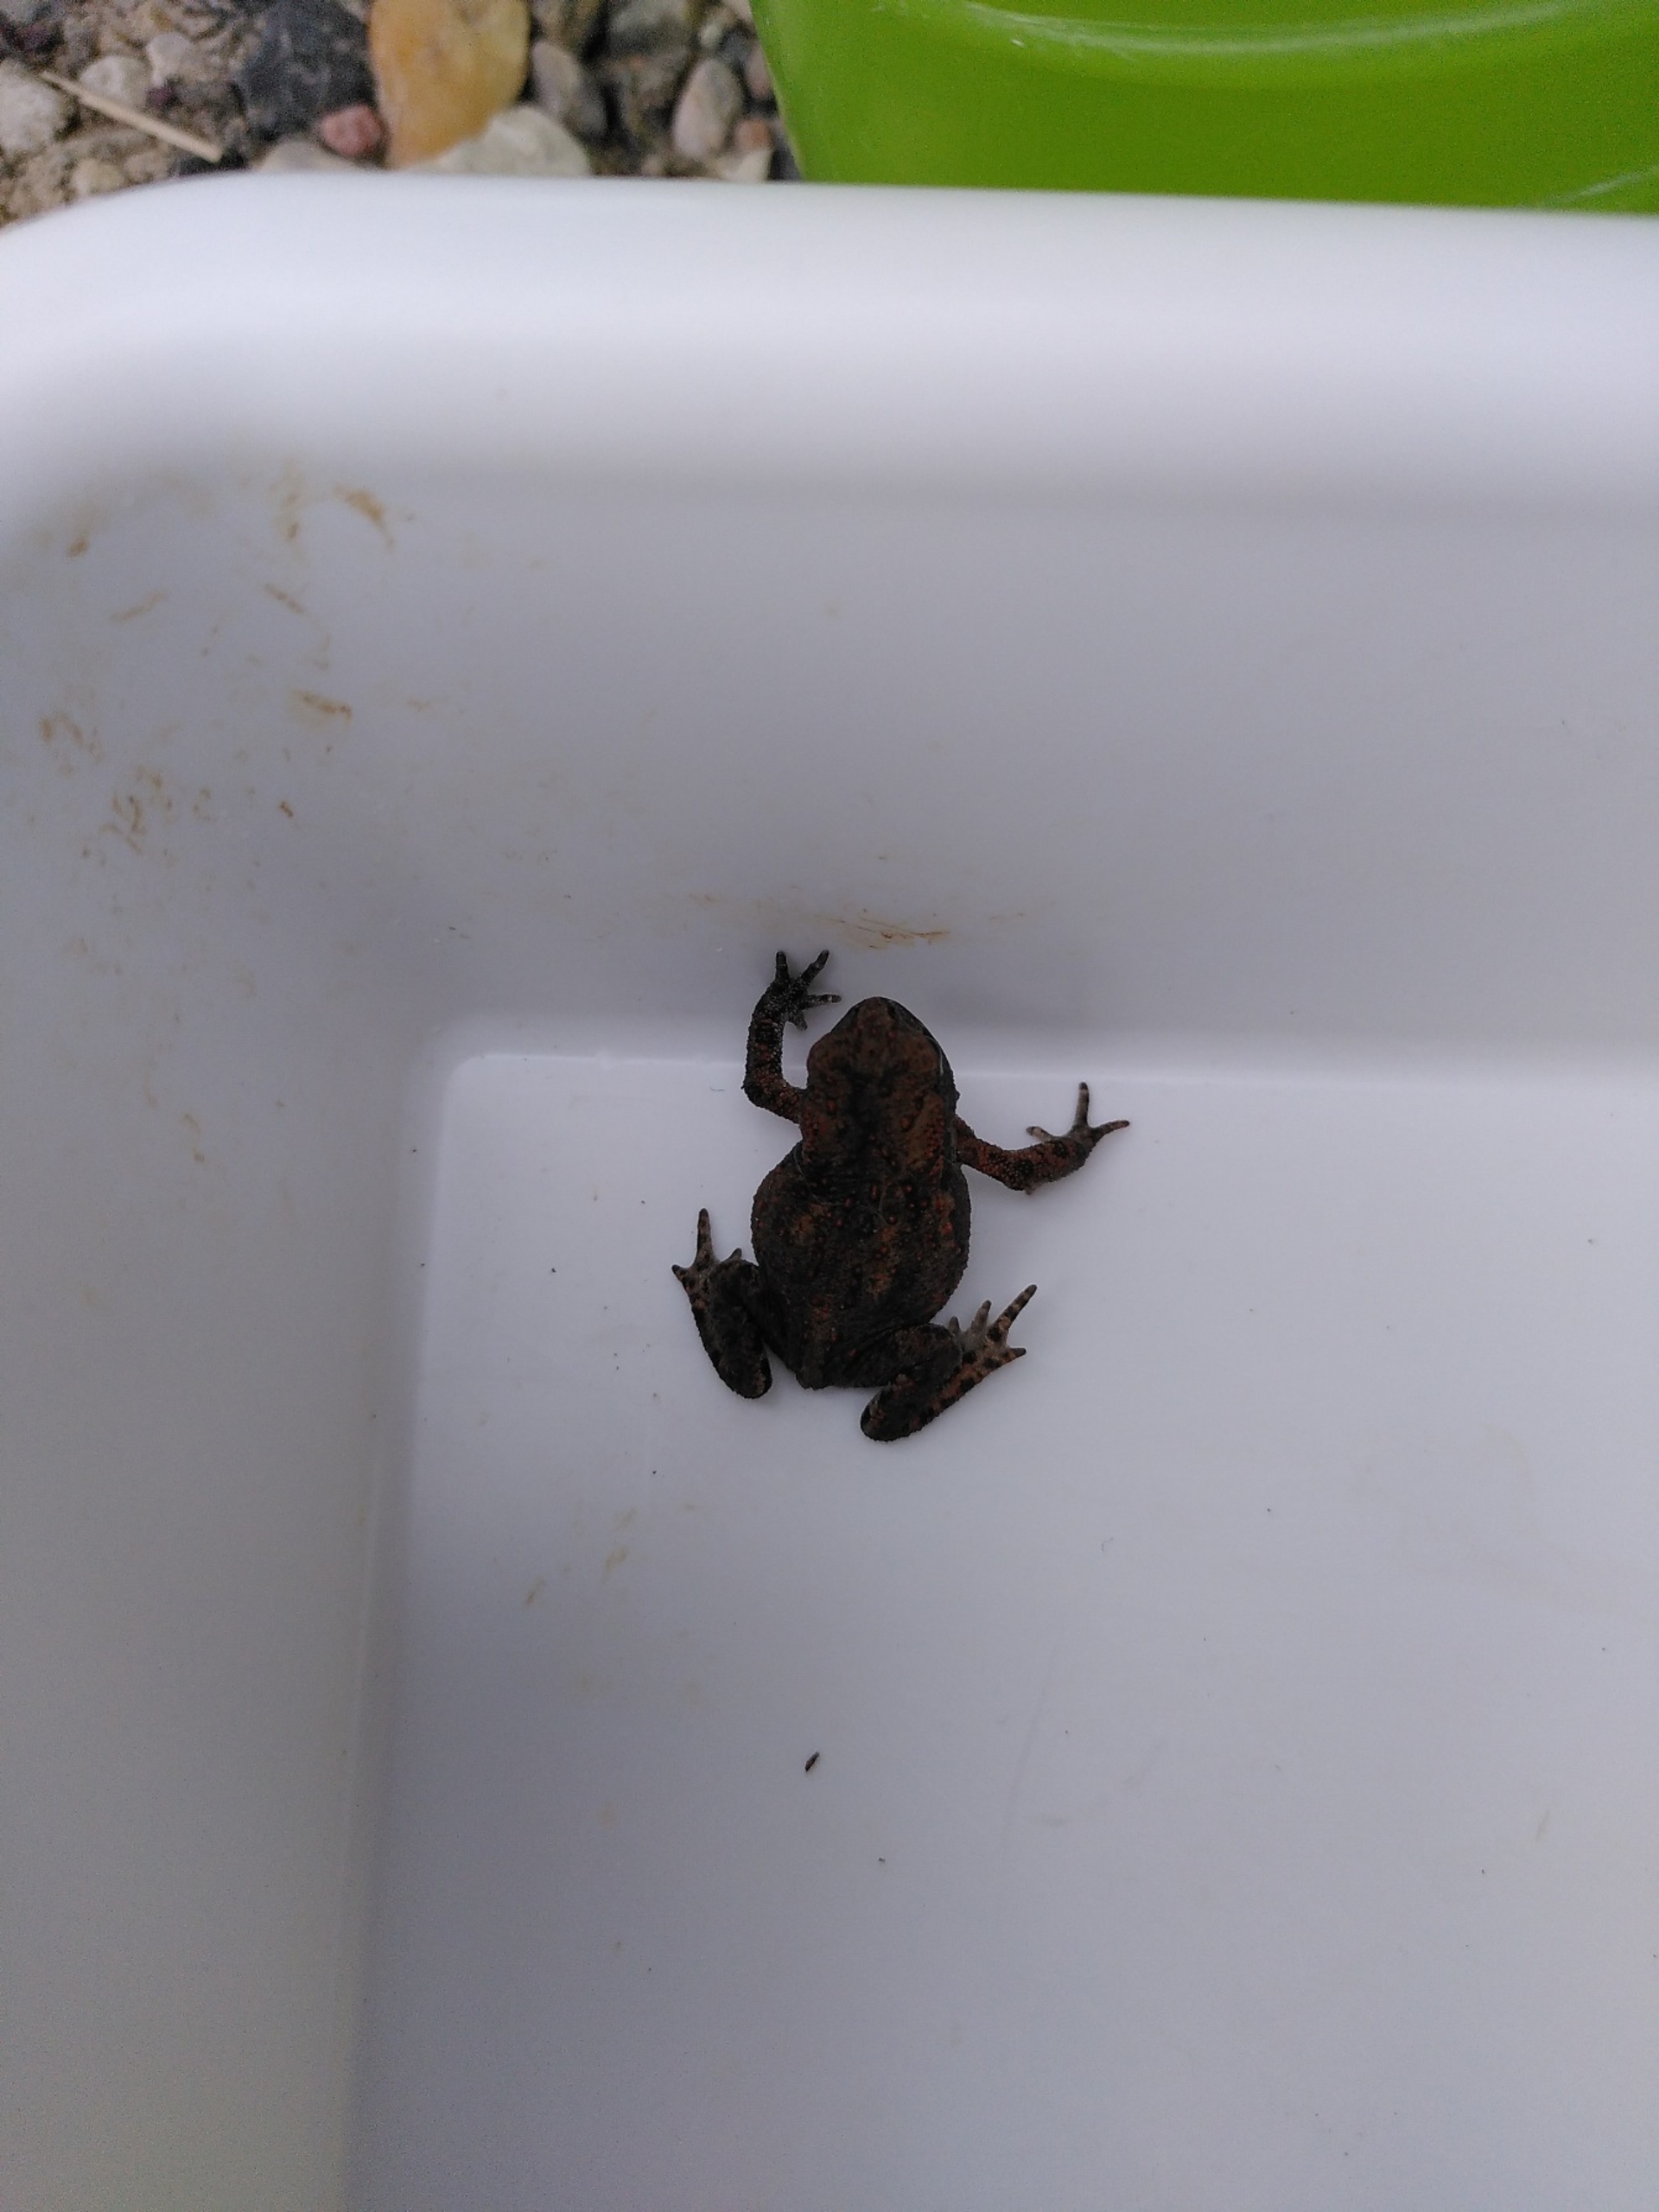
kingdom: Animalia
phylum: Chordata
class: Amphibia
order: Anura
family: Bufonidae
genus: Bufo
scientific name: Bufo bufo
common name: Skrubtudse
